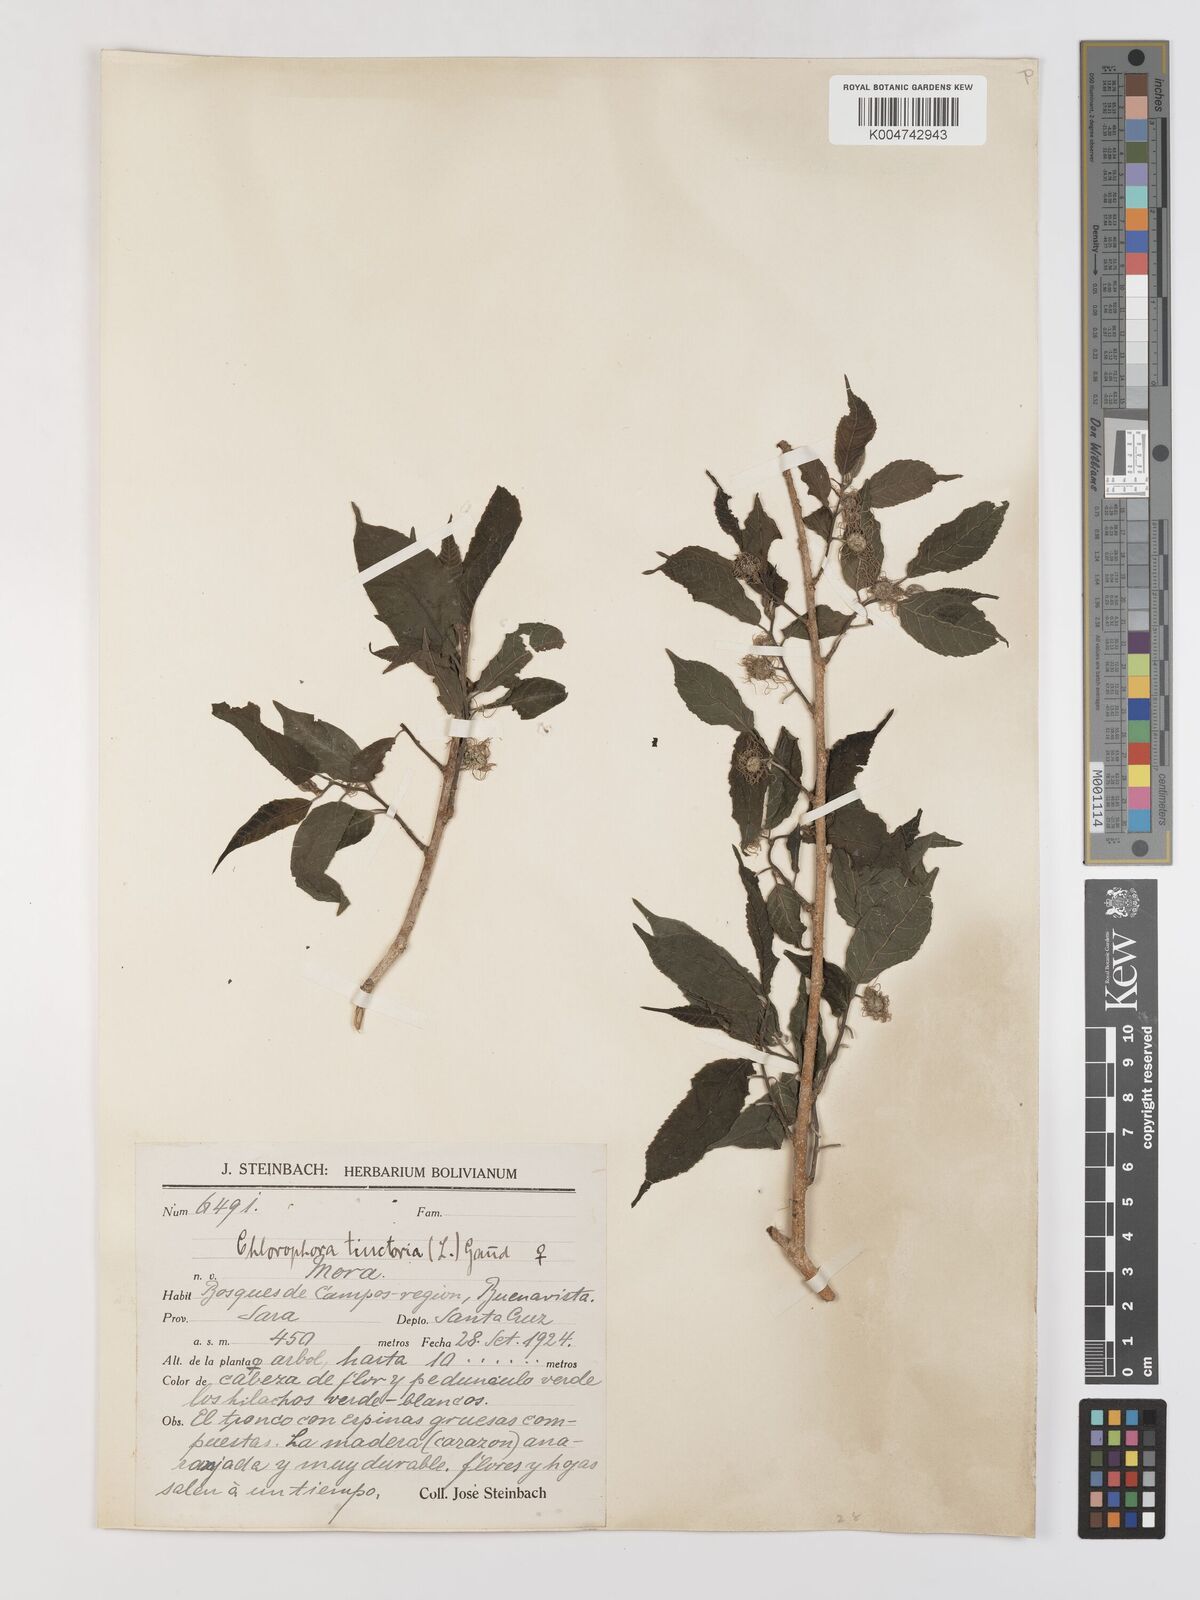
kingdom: Plantae
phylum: Tracheophyta
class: Magnoliopsida
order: Rosales
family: Moraceae
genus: Maclura
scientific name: Maclura tinctoria
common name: Old fustic
